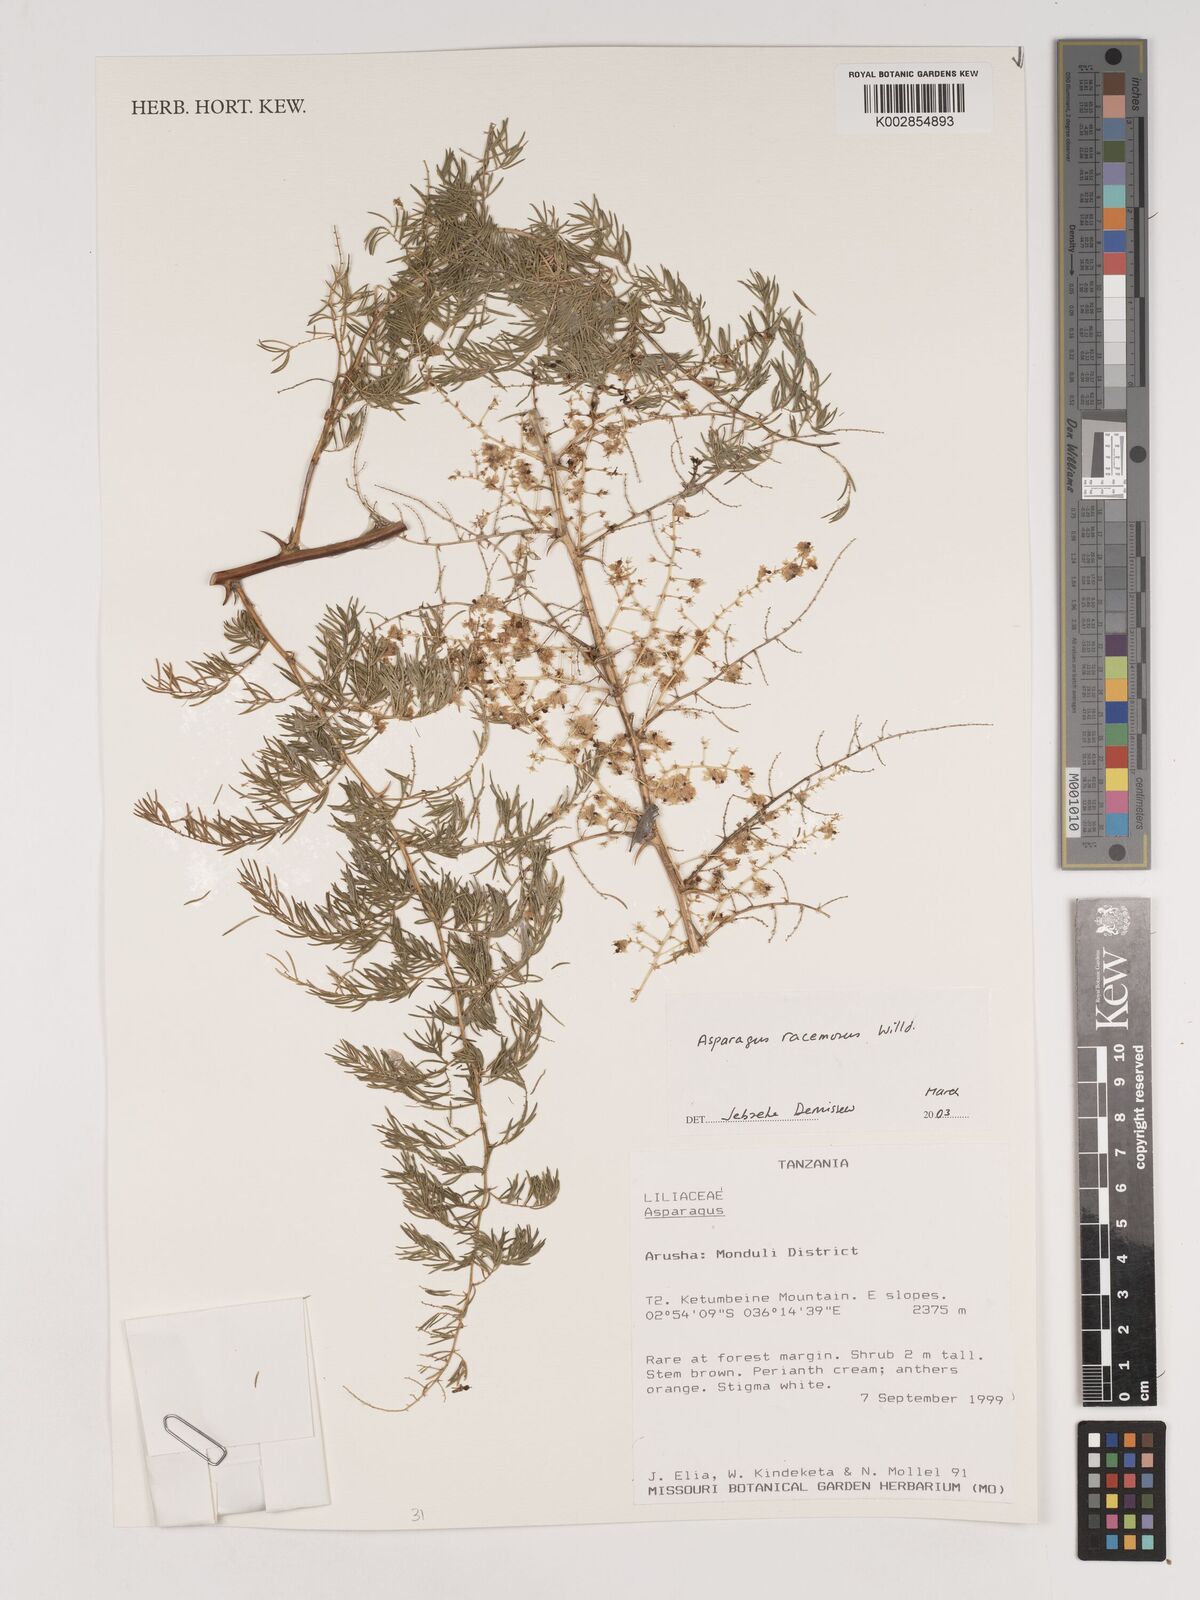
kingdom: Plantae
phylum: Tracheophyta
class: Liliopsida
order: Asparagales
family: Asparagaceae
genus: Asparagus
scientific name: Asparagus racemosus
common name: Asparagus-fern
